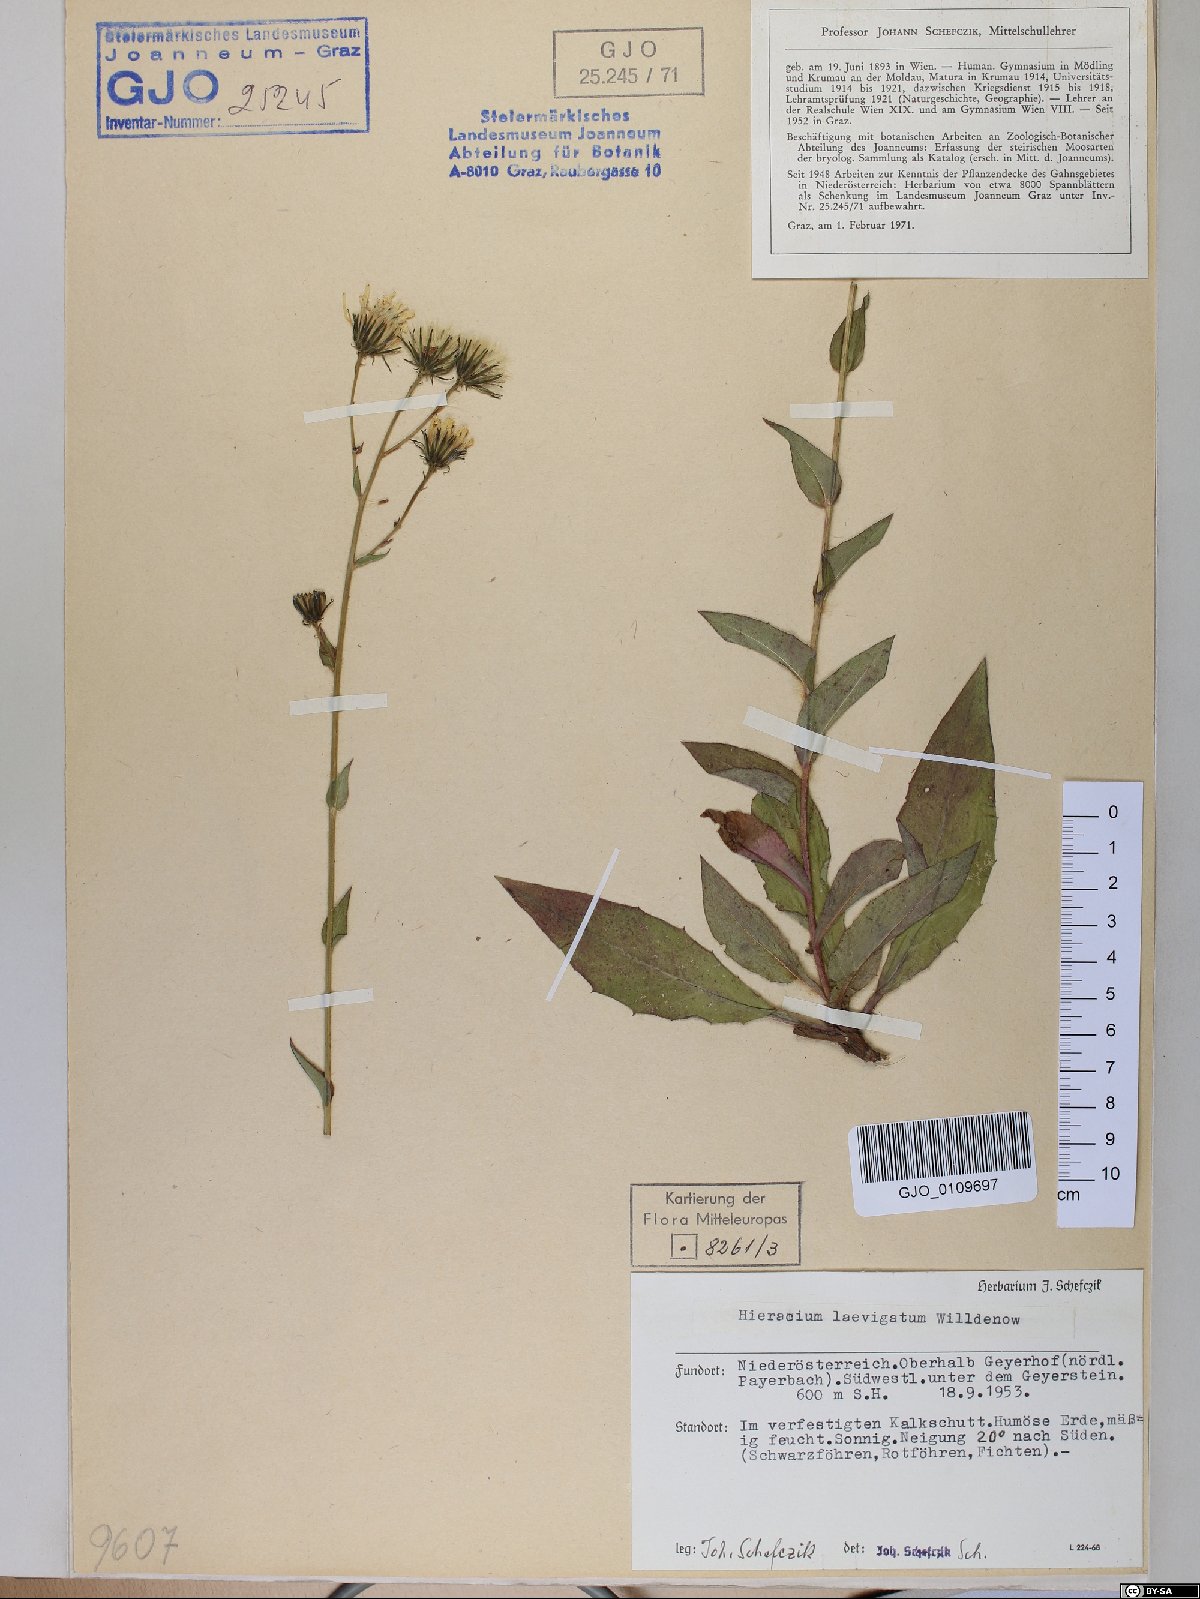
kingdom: Plantae
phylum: Tracheophyta
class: Magnoliopsida
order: Asterales
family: Asteraceae
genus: Hieracium
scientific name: Hieracium laevigatum
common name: Smooth hawkweed
